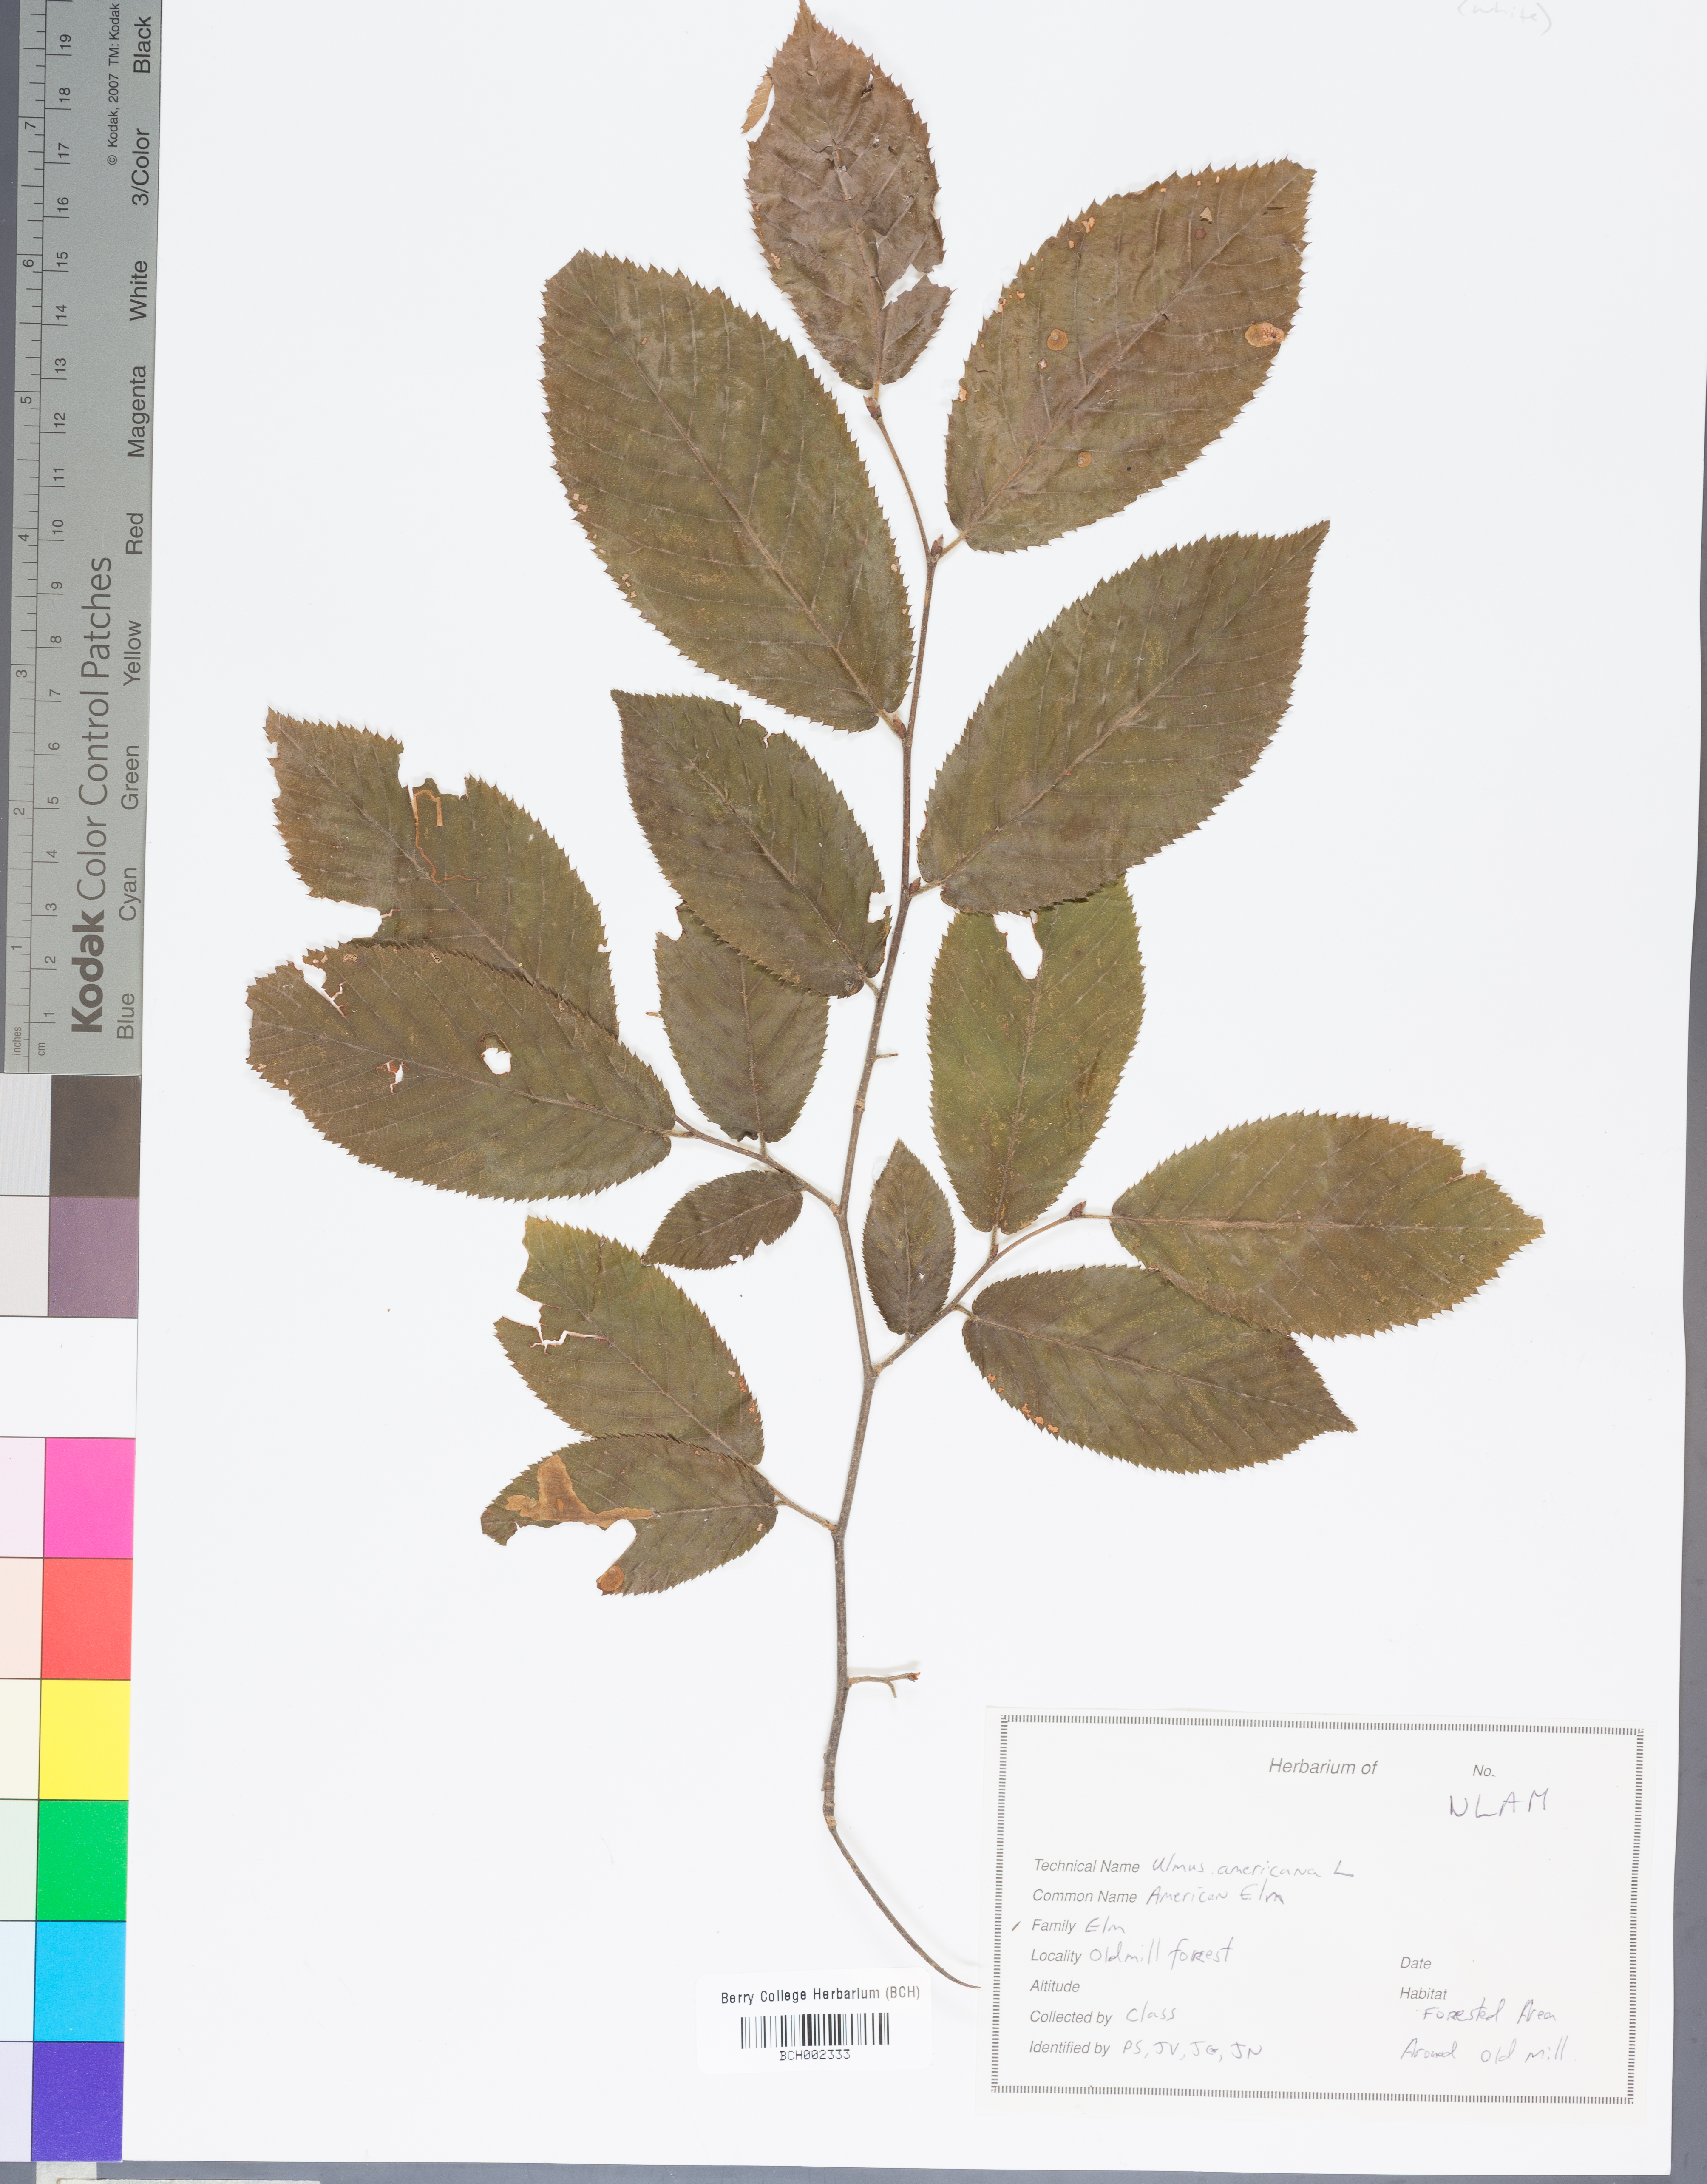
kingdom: Plantae
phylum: Tracheophyta
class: Magnoliopsida
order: Rosales
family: Ulmaceae
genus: Ulmus
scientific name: Ulmus americana
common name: American elm
